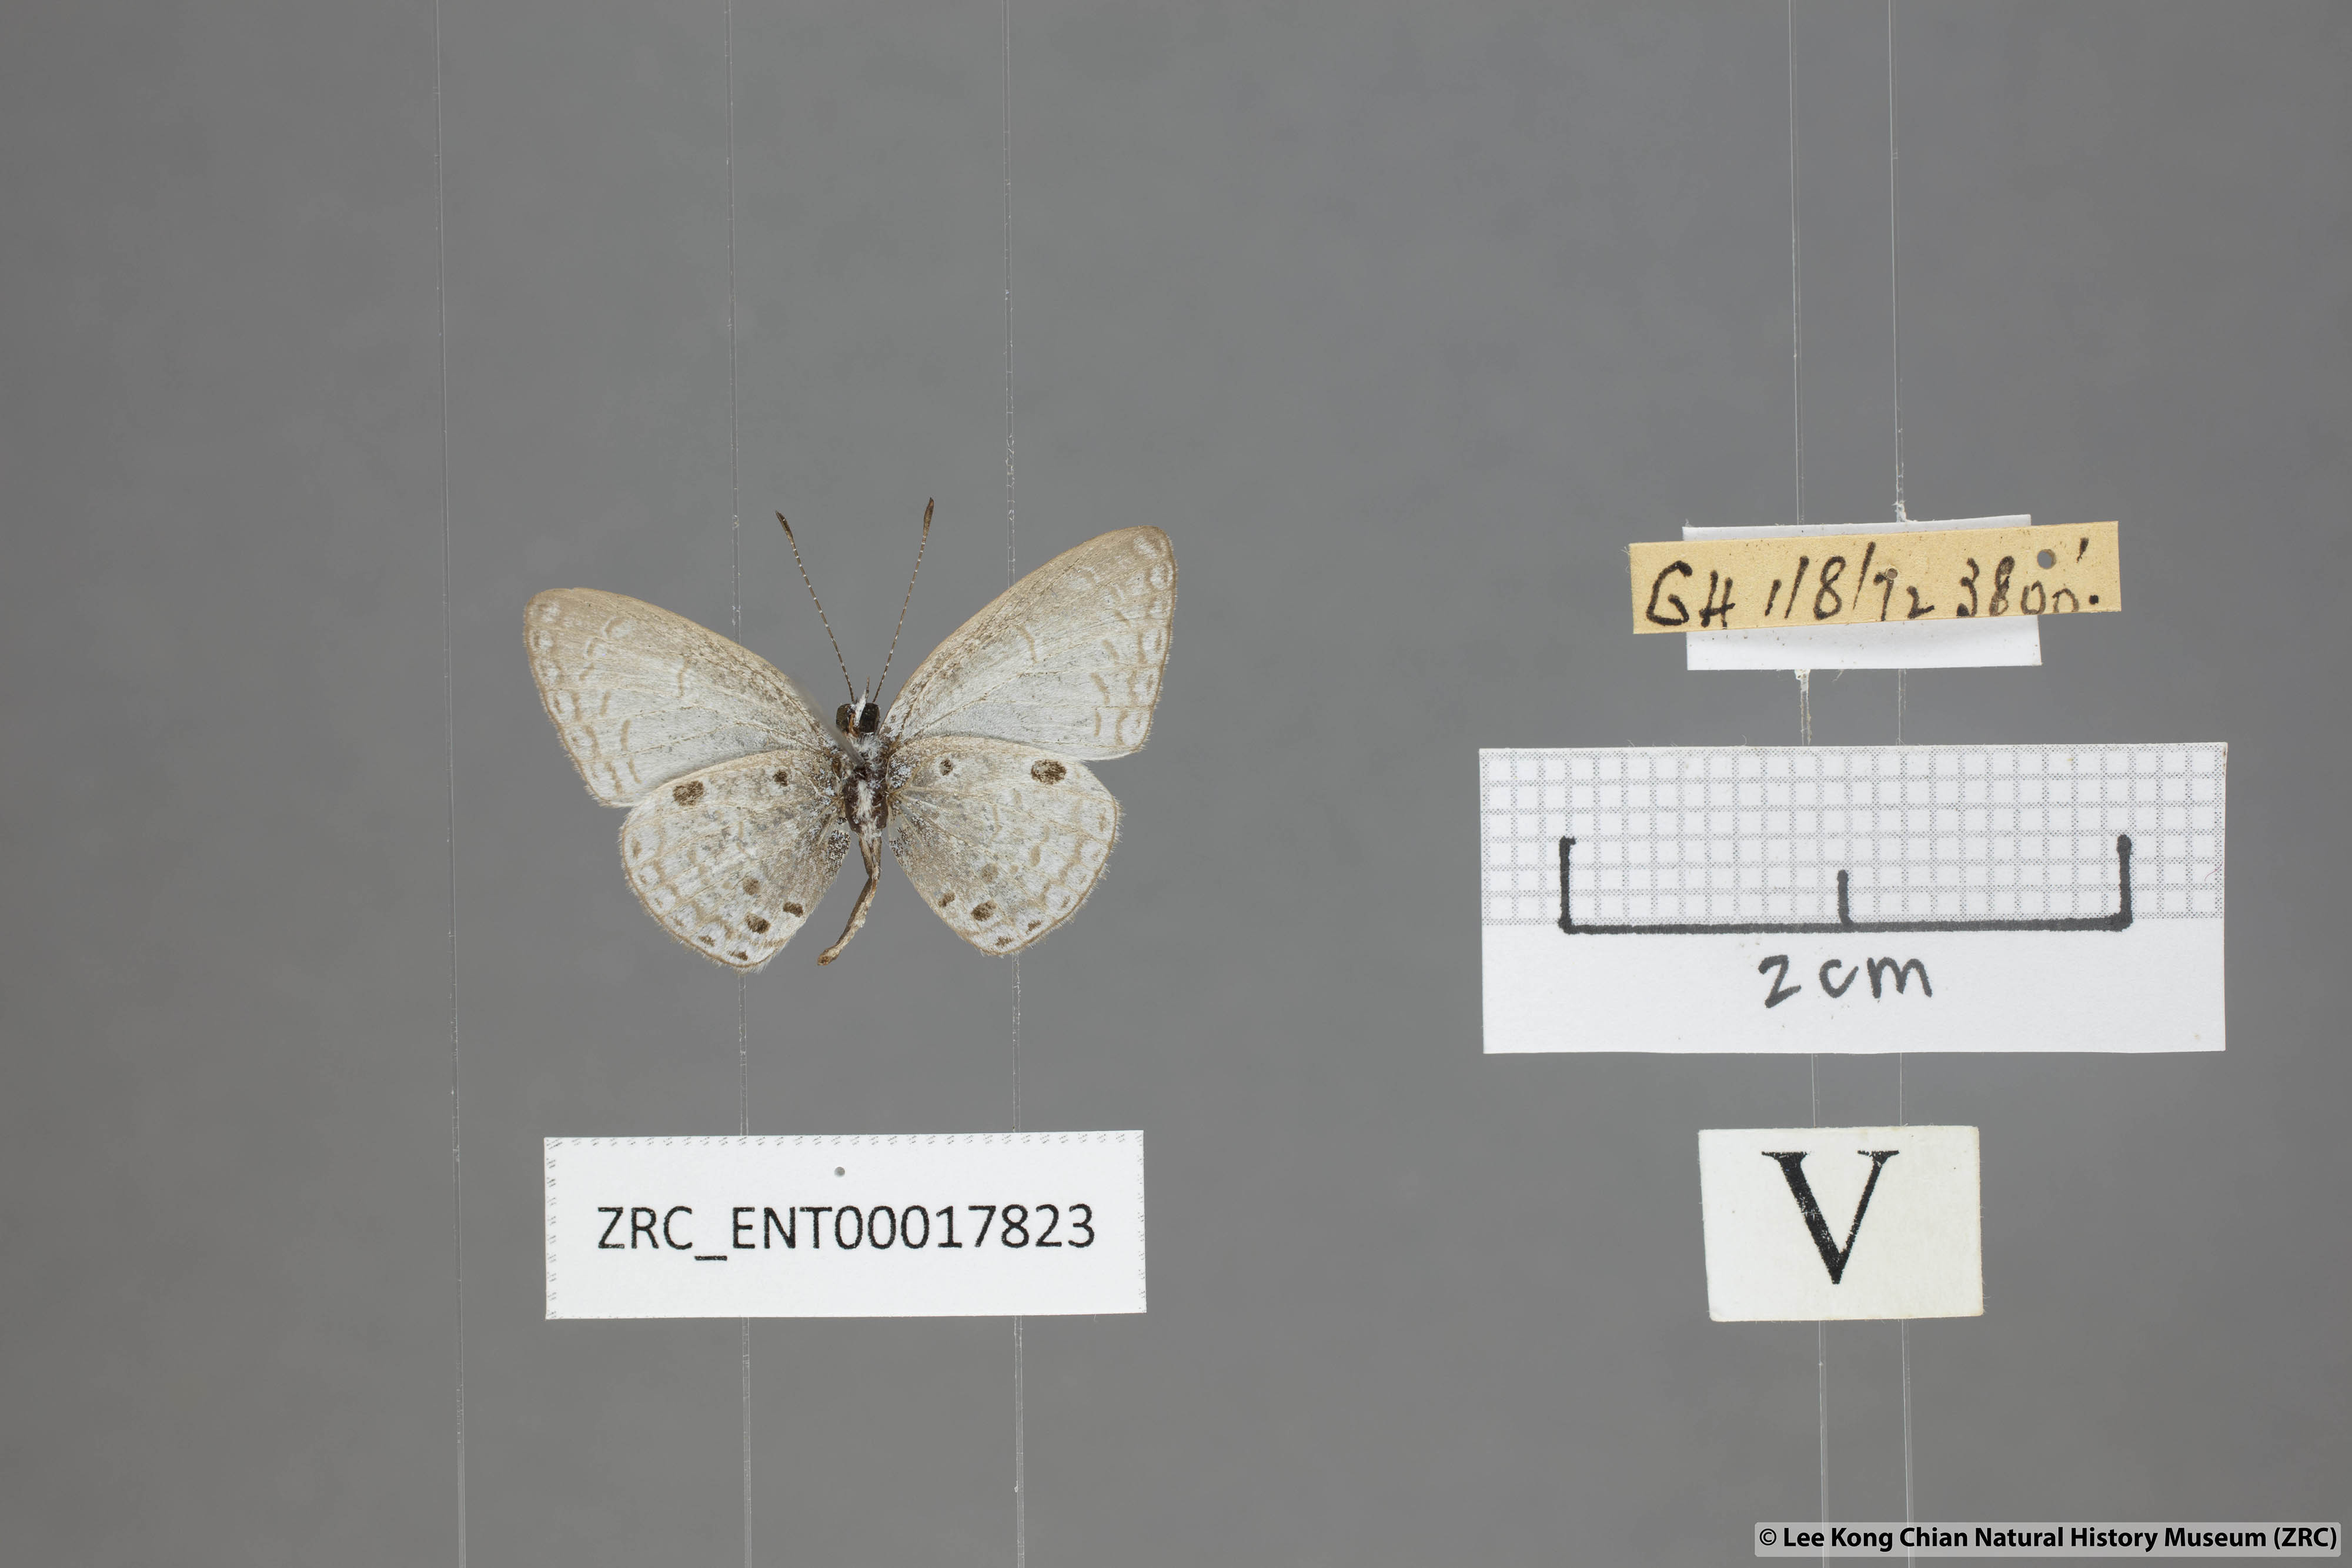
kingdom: Animalia
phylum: Arthropoda
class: Insecta
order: Lepidoptera
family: Lycaenidae
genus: Cebrella
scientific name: Cebrella
